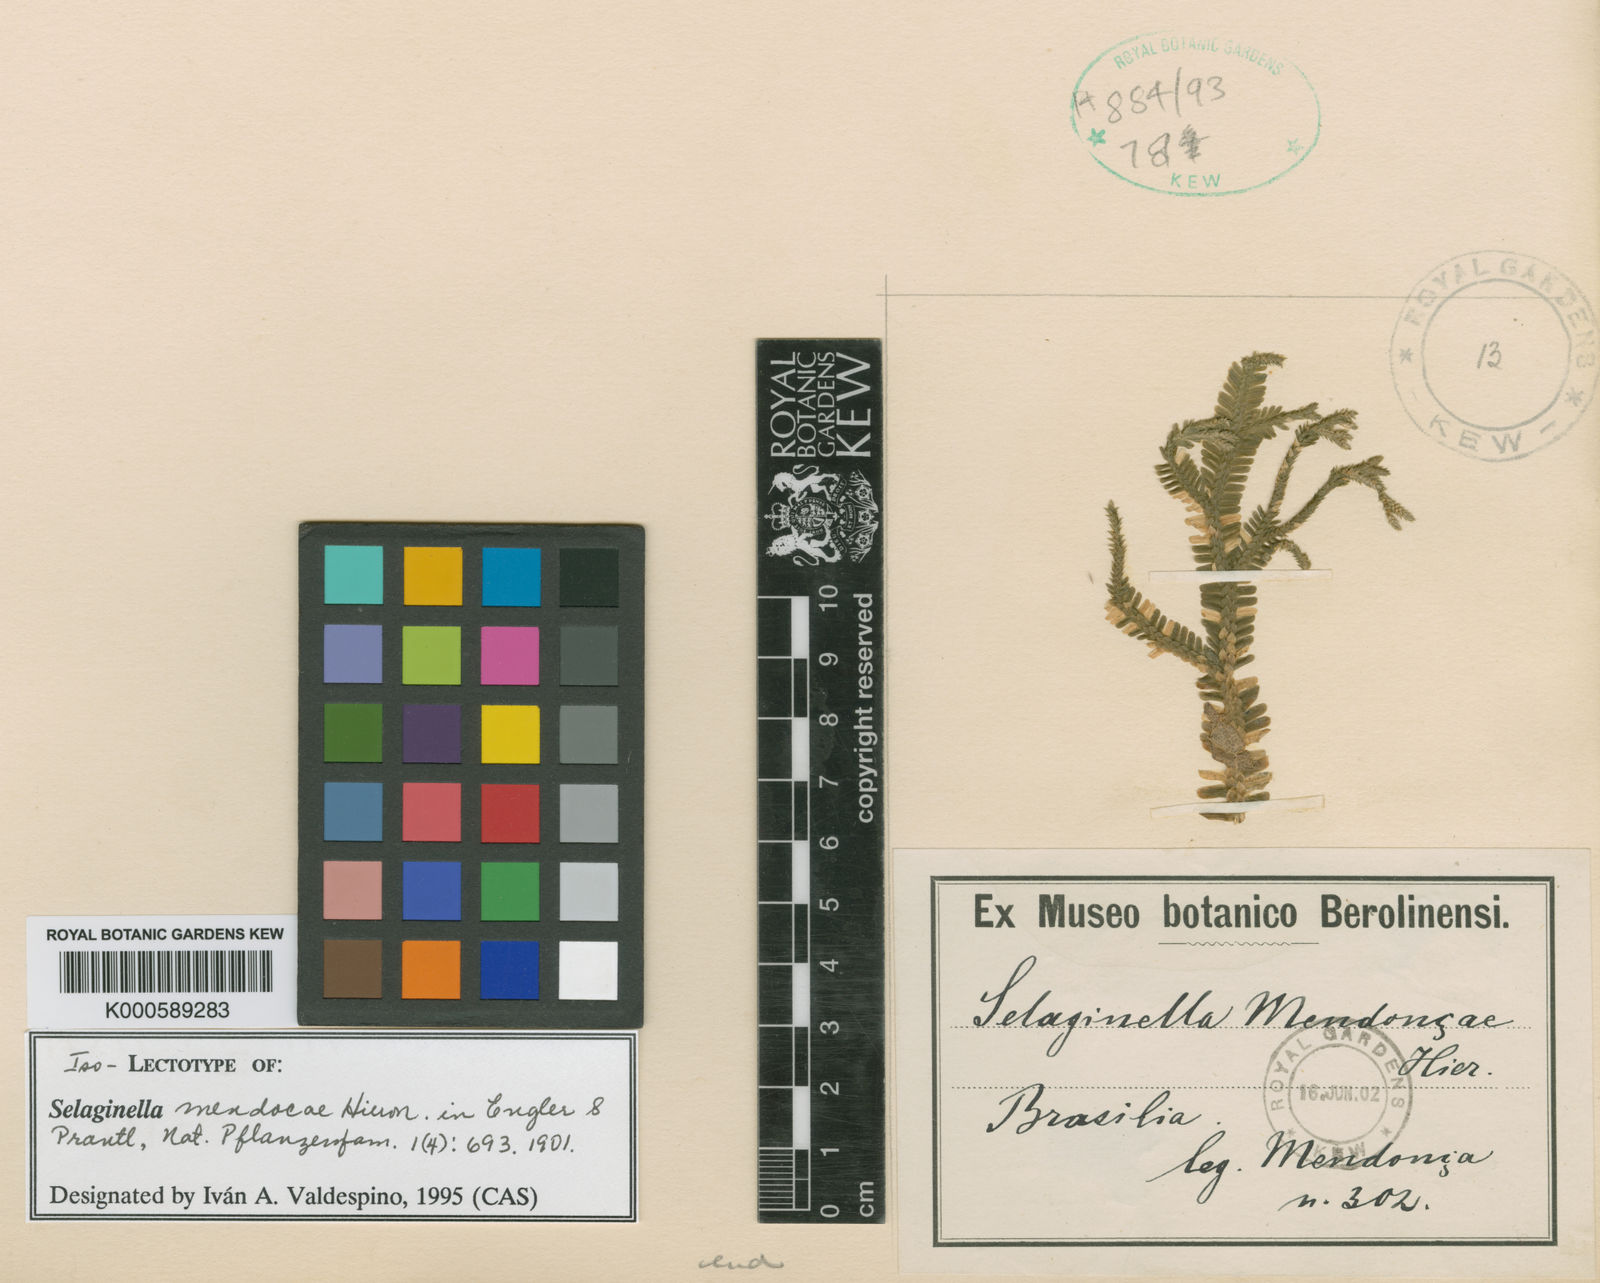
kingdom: Plantae
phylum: Tracheophyta
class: Lycopodiopsida
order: Selaginellales
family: Selaginellaceae
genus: Selaginella
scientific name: Selaginella mendoncae
